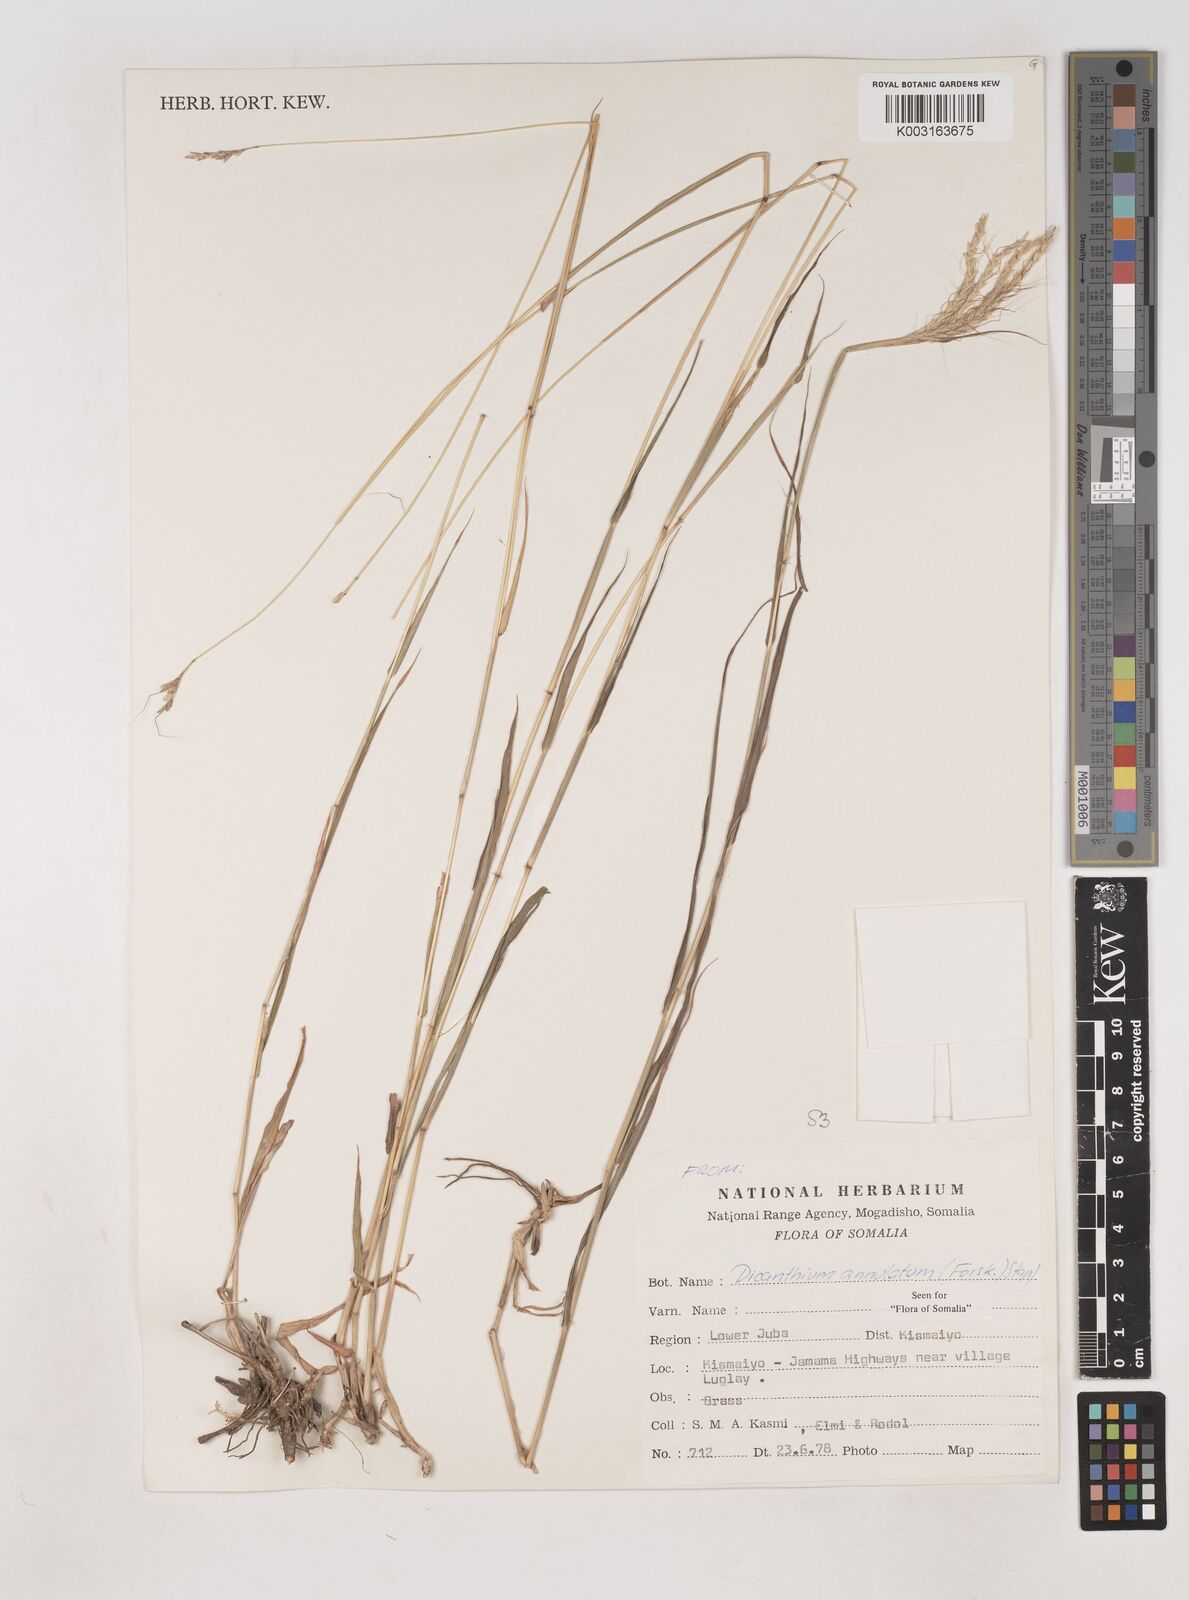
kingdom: Plantae
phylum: Tracheophyta
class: Liliopsida
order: Poales
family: Poaceae
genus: Dichanthium
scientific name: Dichanthium annulatum
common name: Kleberg's bluestem
